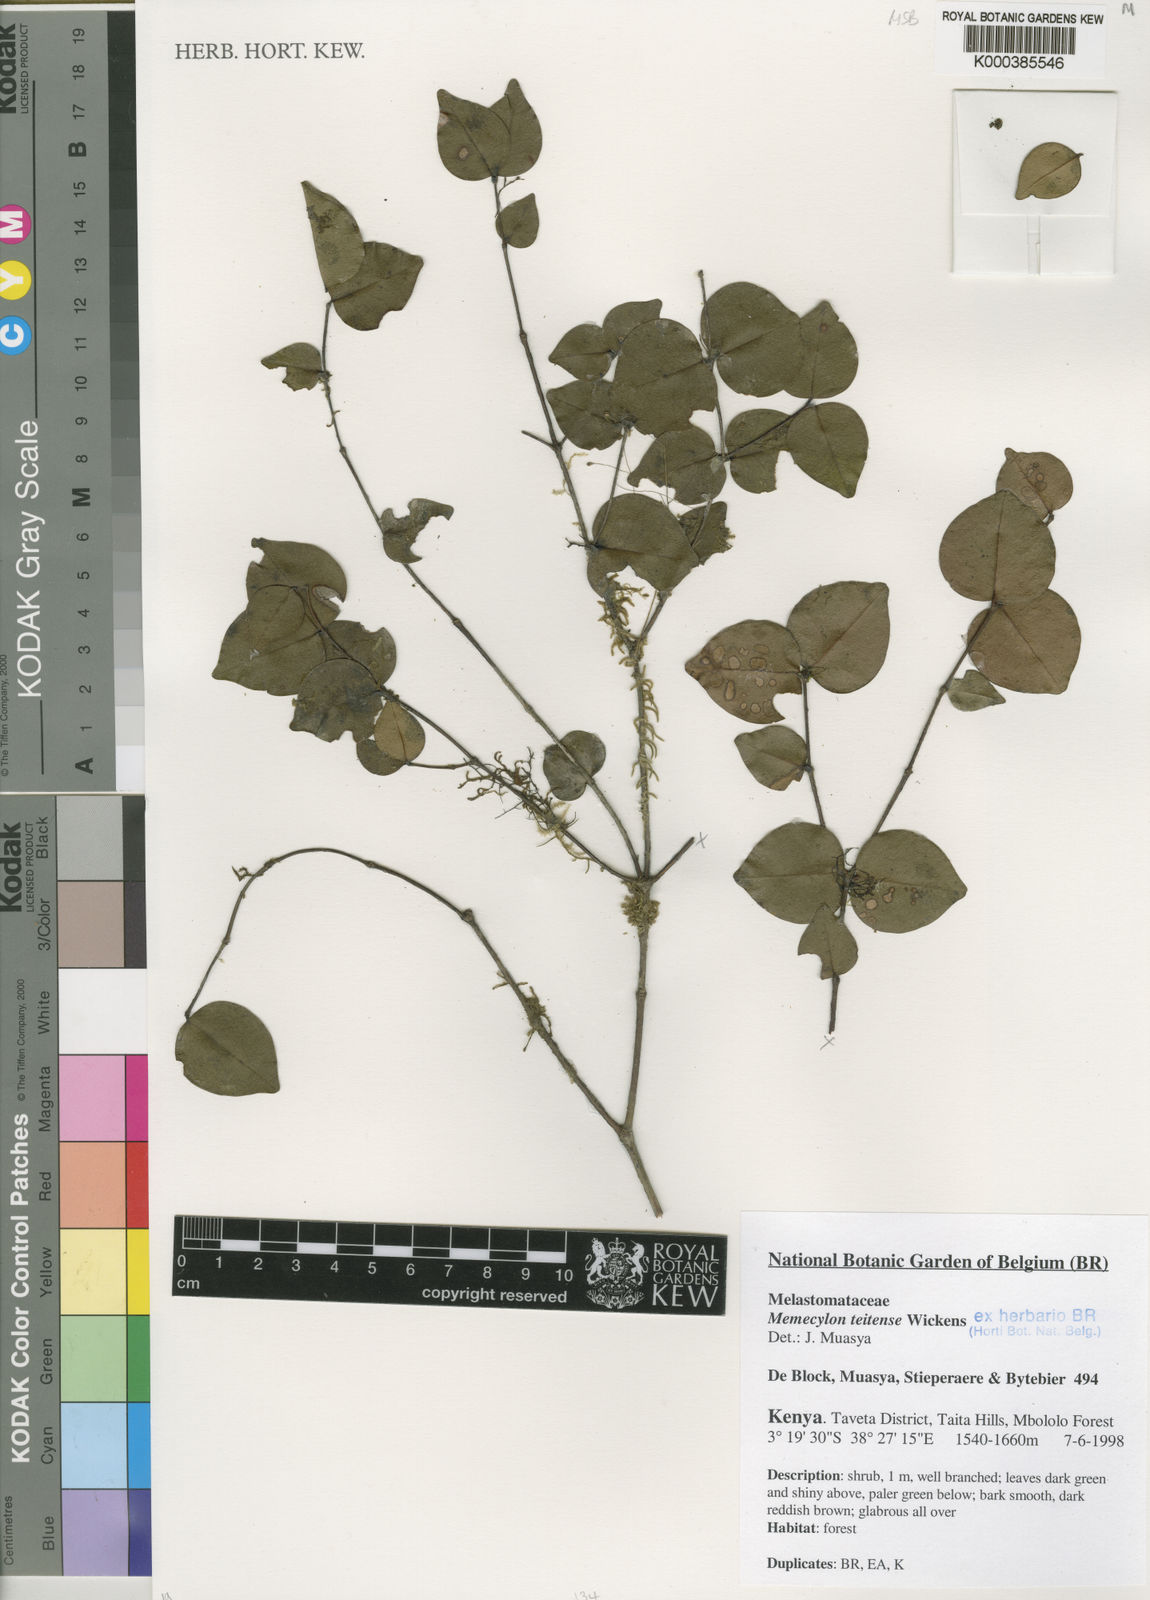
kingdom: Plantae
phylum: Tracheophyta
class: Magnoliopsida
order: Myrtales
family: Melastomataceae
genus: Memecylon
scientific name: Memecylon teitense
